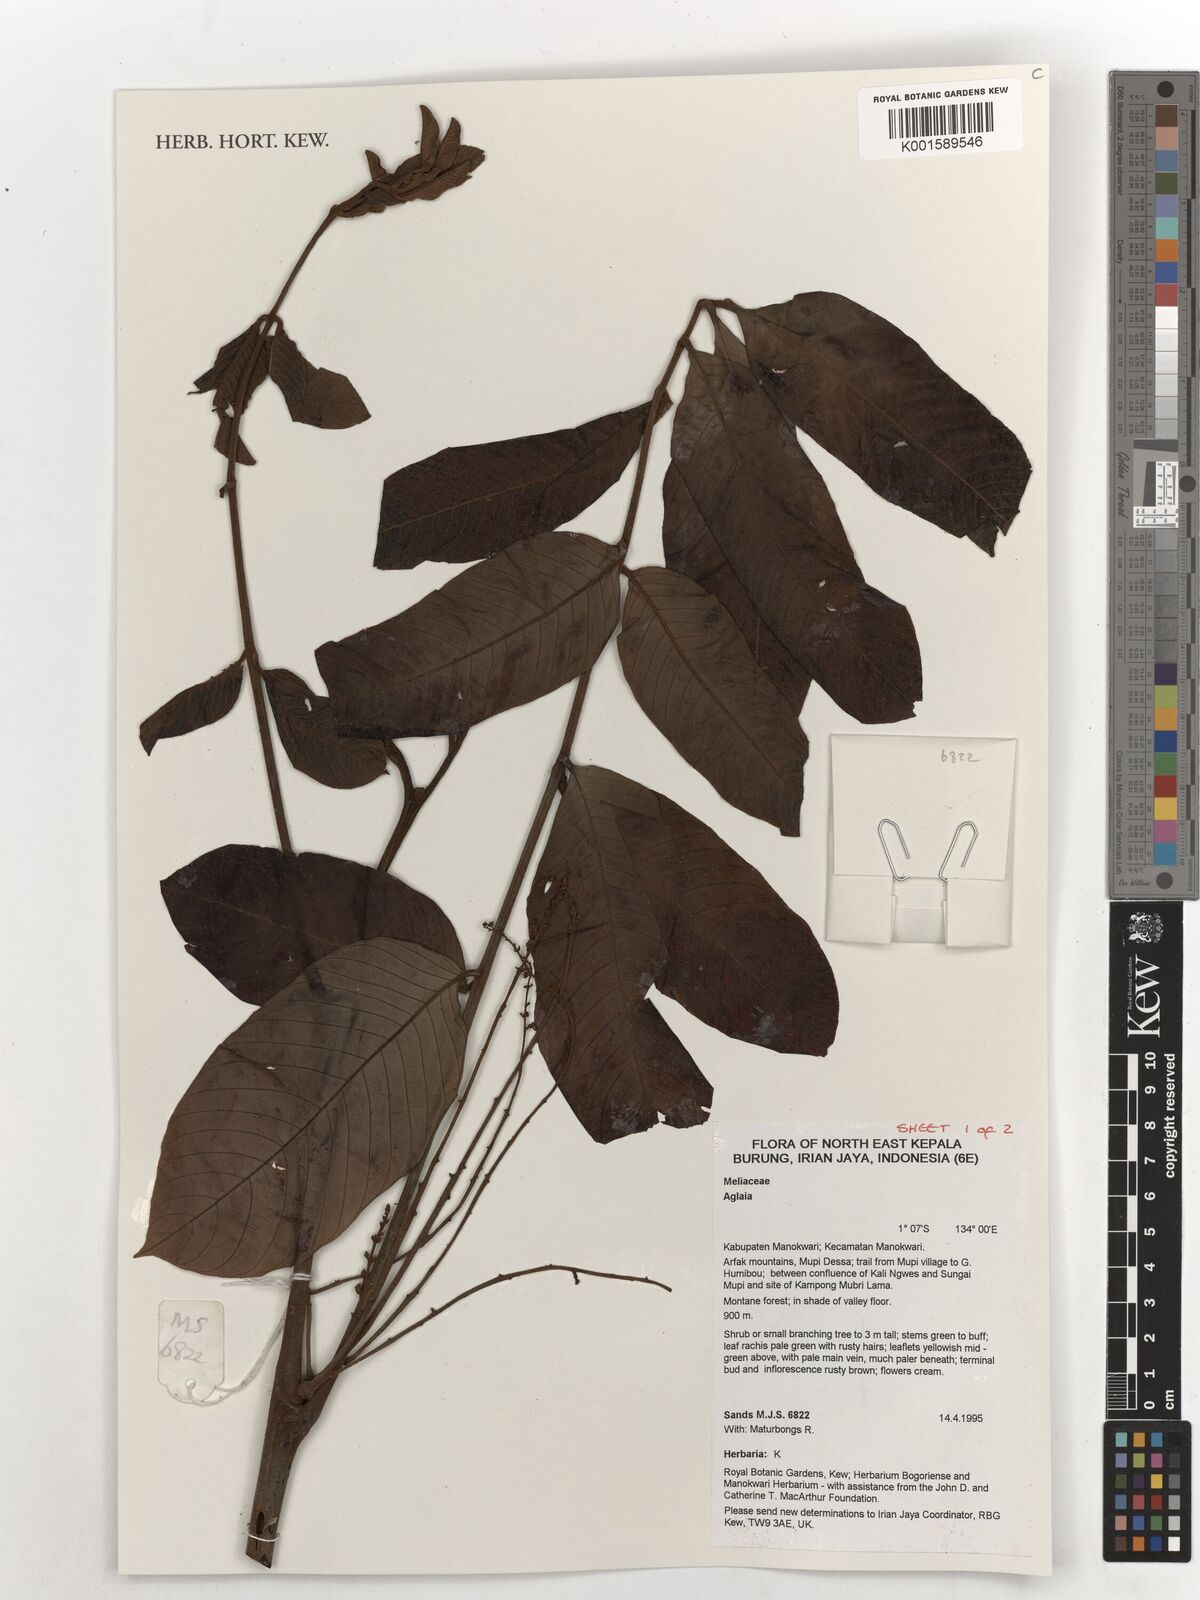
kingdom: Plantae
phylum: Tracheophyta
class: Magnoliopsida
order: Sapindales
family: Meliaceae
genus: Aglaia
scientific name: Aglaia
